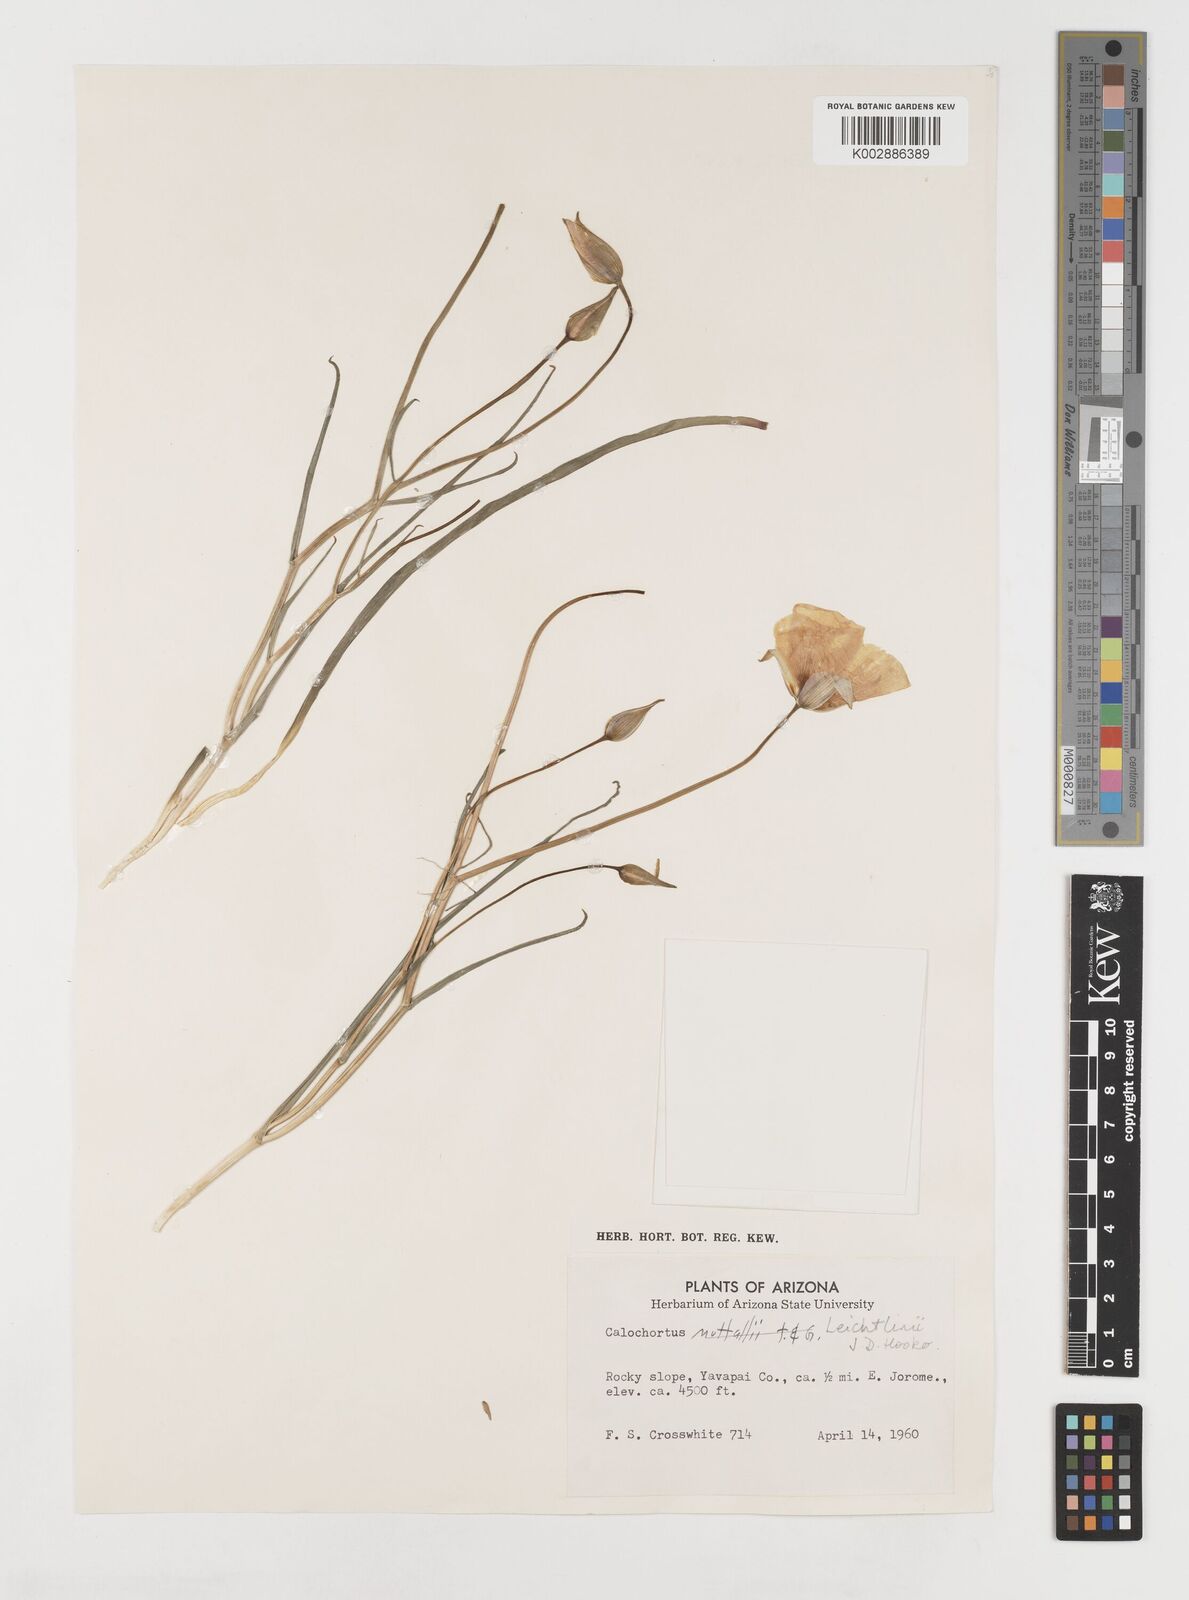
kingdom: Plantae
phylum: Tracheophyta
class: Liliopsida
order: Liliales
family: Liliaceae
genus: Calochortus
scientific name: Calochortus leichtlinii
